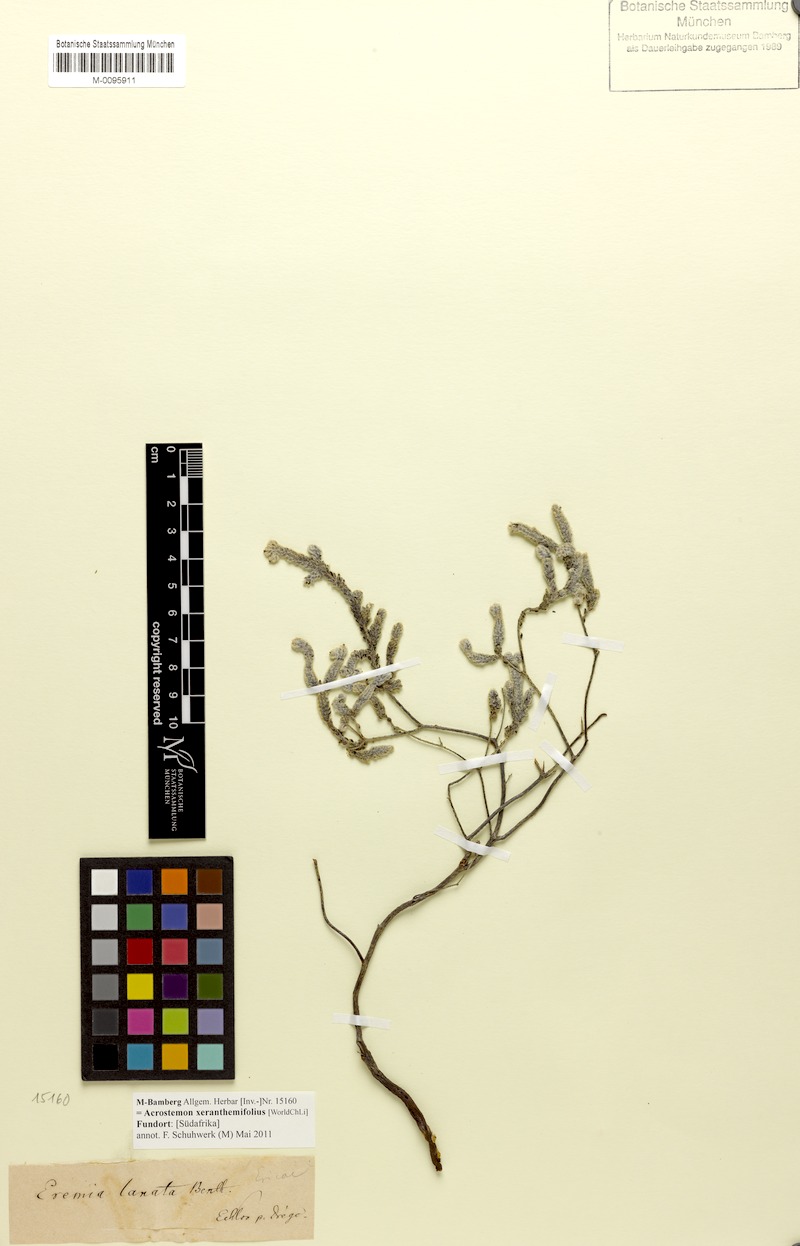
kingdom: Plantae
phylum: Tracheophyta
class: Magnoliopsida
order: Ericales
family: Ericaceae
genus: Erica
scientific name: Erica xeranthemifolia
